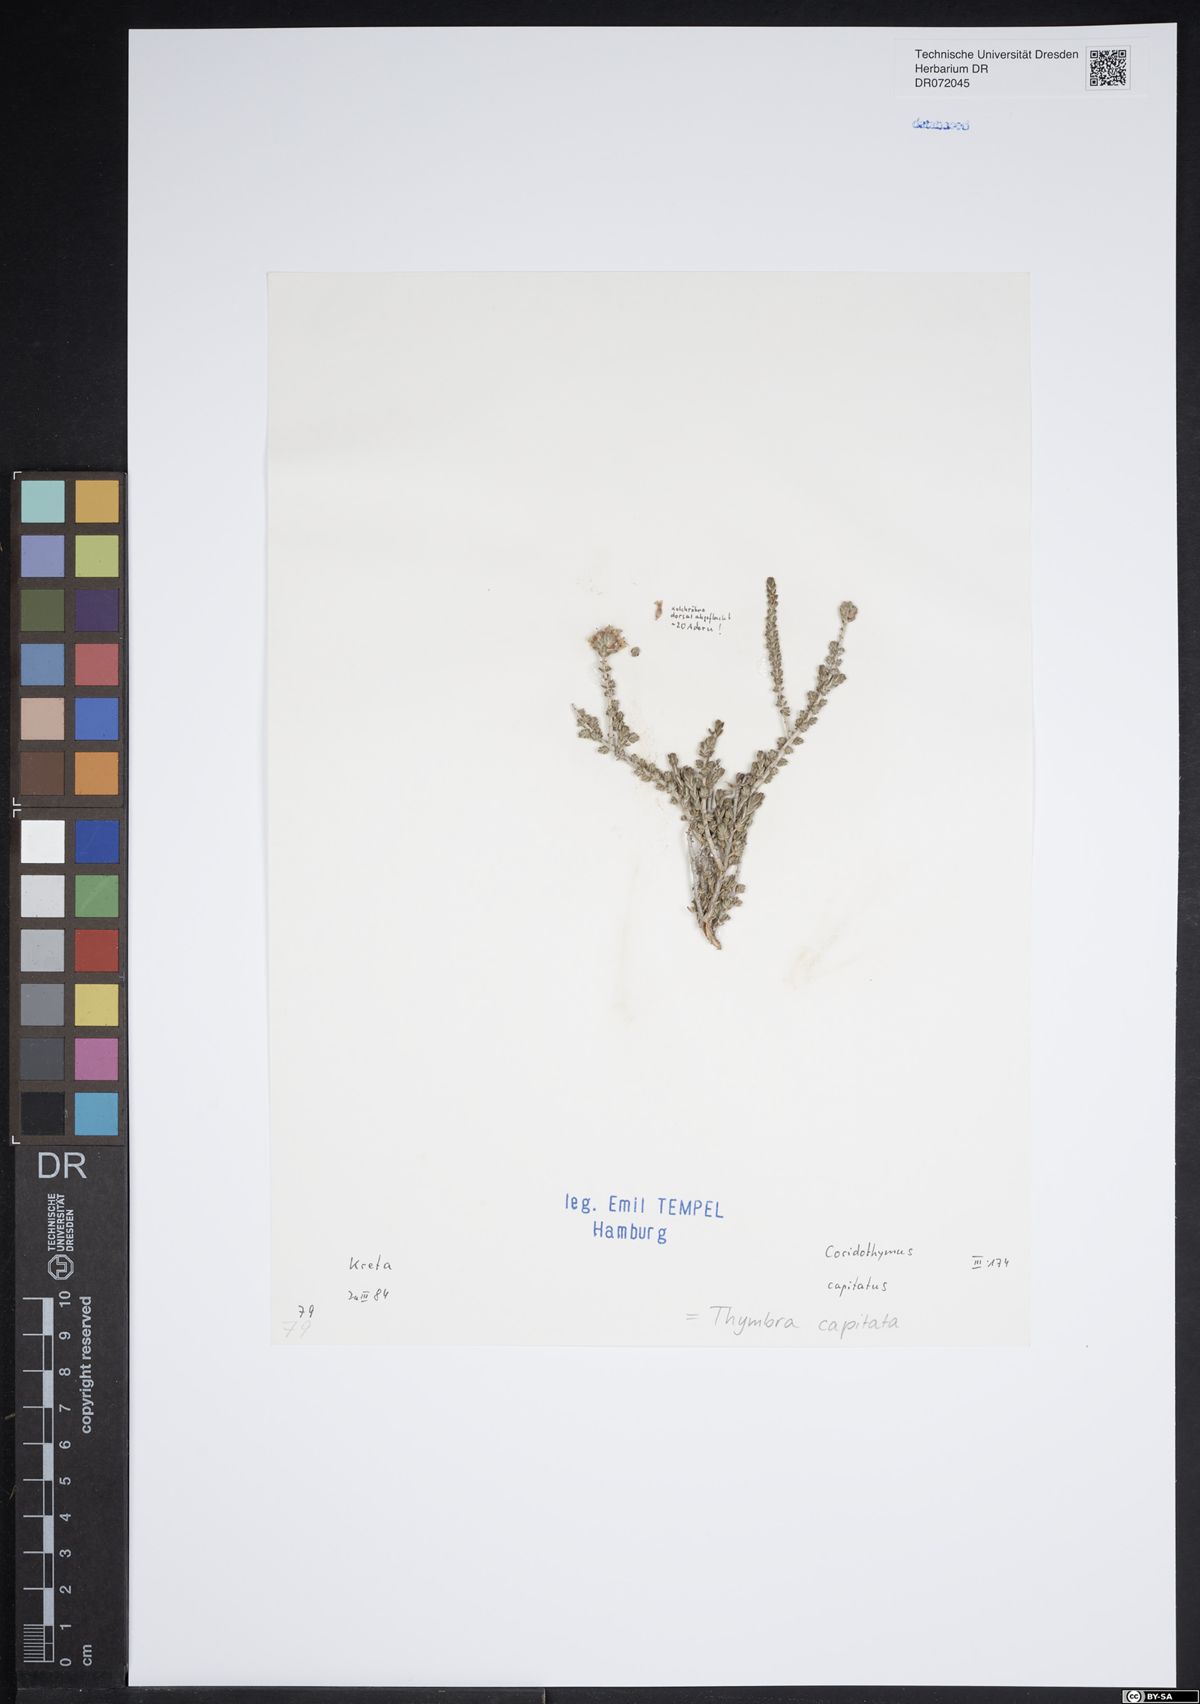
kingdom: Plantae
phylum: Tracheophyta
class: Magnoliopsida
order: Lamiales
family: Lamiaceae
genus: Thymbra
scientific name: Thymbra capitata
